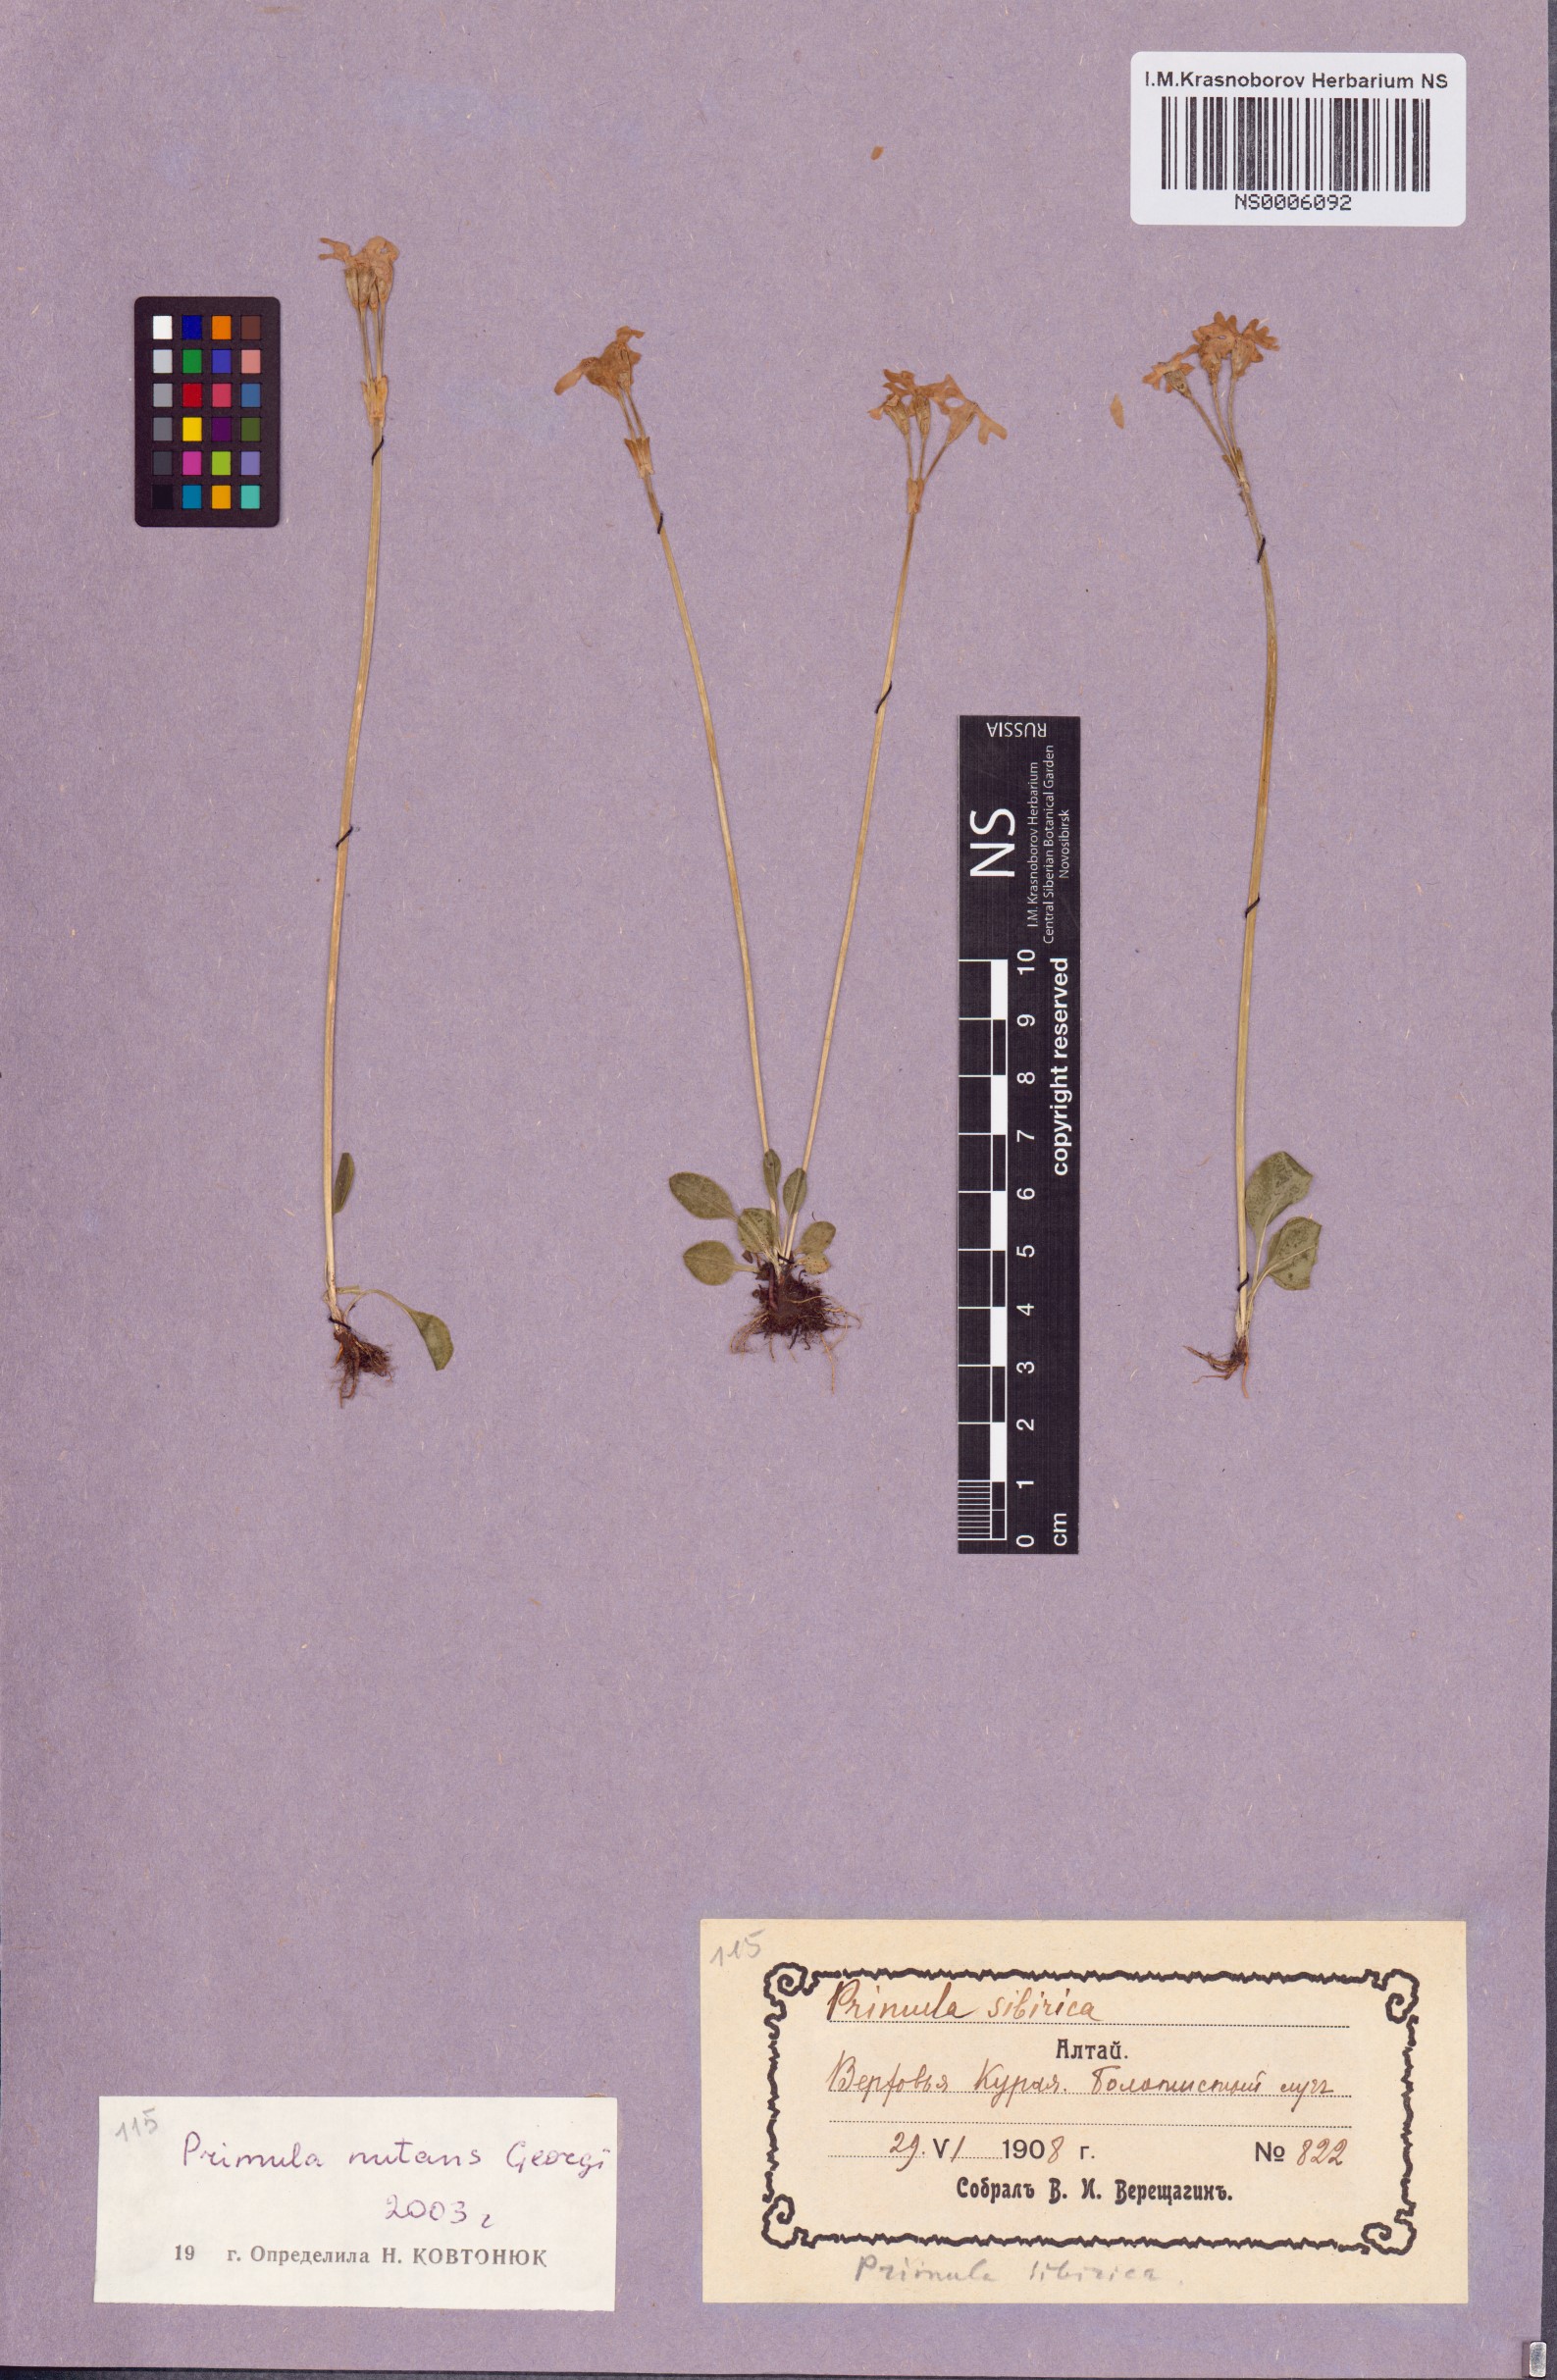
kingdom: Plantae
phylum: Tracheophyta
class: Magnoliopsida
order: Ericales
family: Primulaceae
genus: Primula
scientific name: Primula nutans
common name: Siberian primrose
